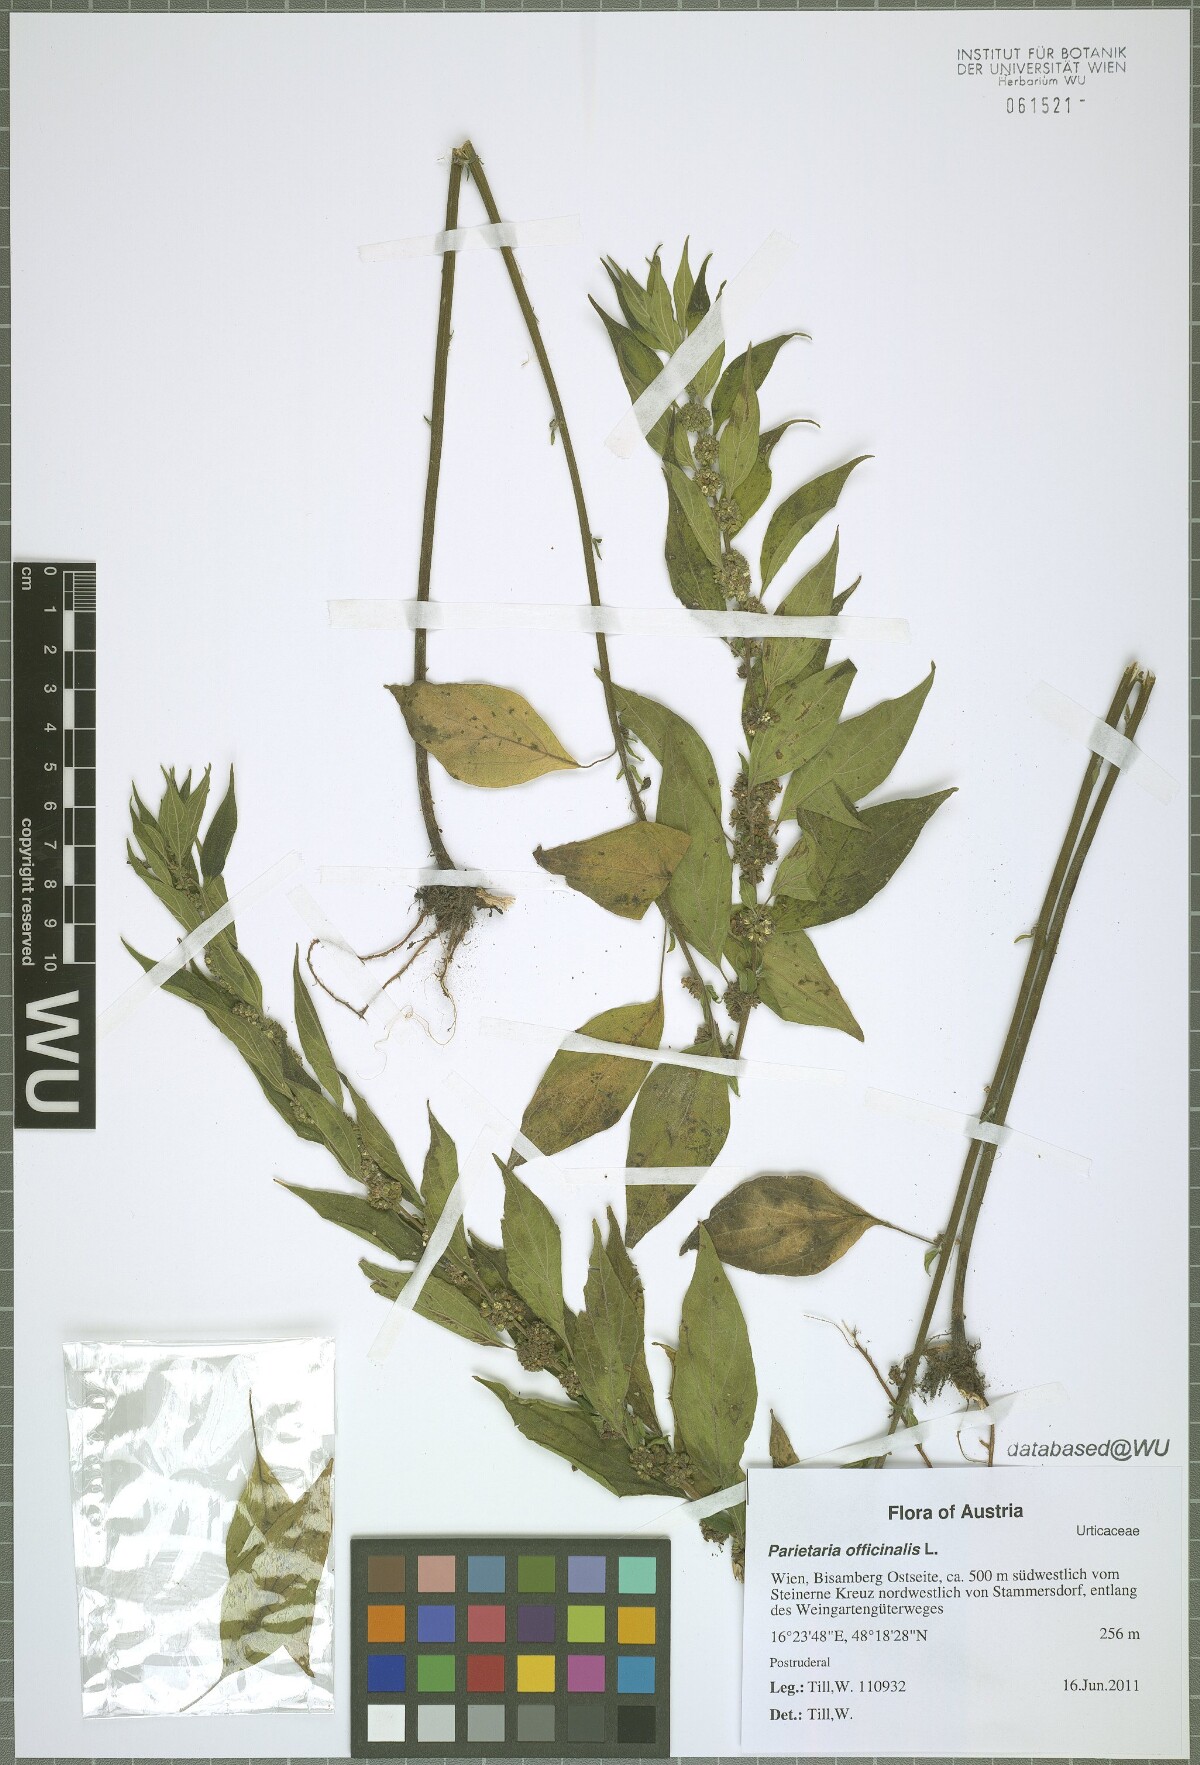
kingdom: Plantae
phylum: Tracheophyta
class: Magnoliopsida
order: Rosales
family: Urticaceae
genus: Parietaria
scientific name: Parietaria officinalis
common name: Eastern pellitory-of-the-wall
